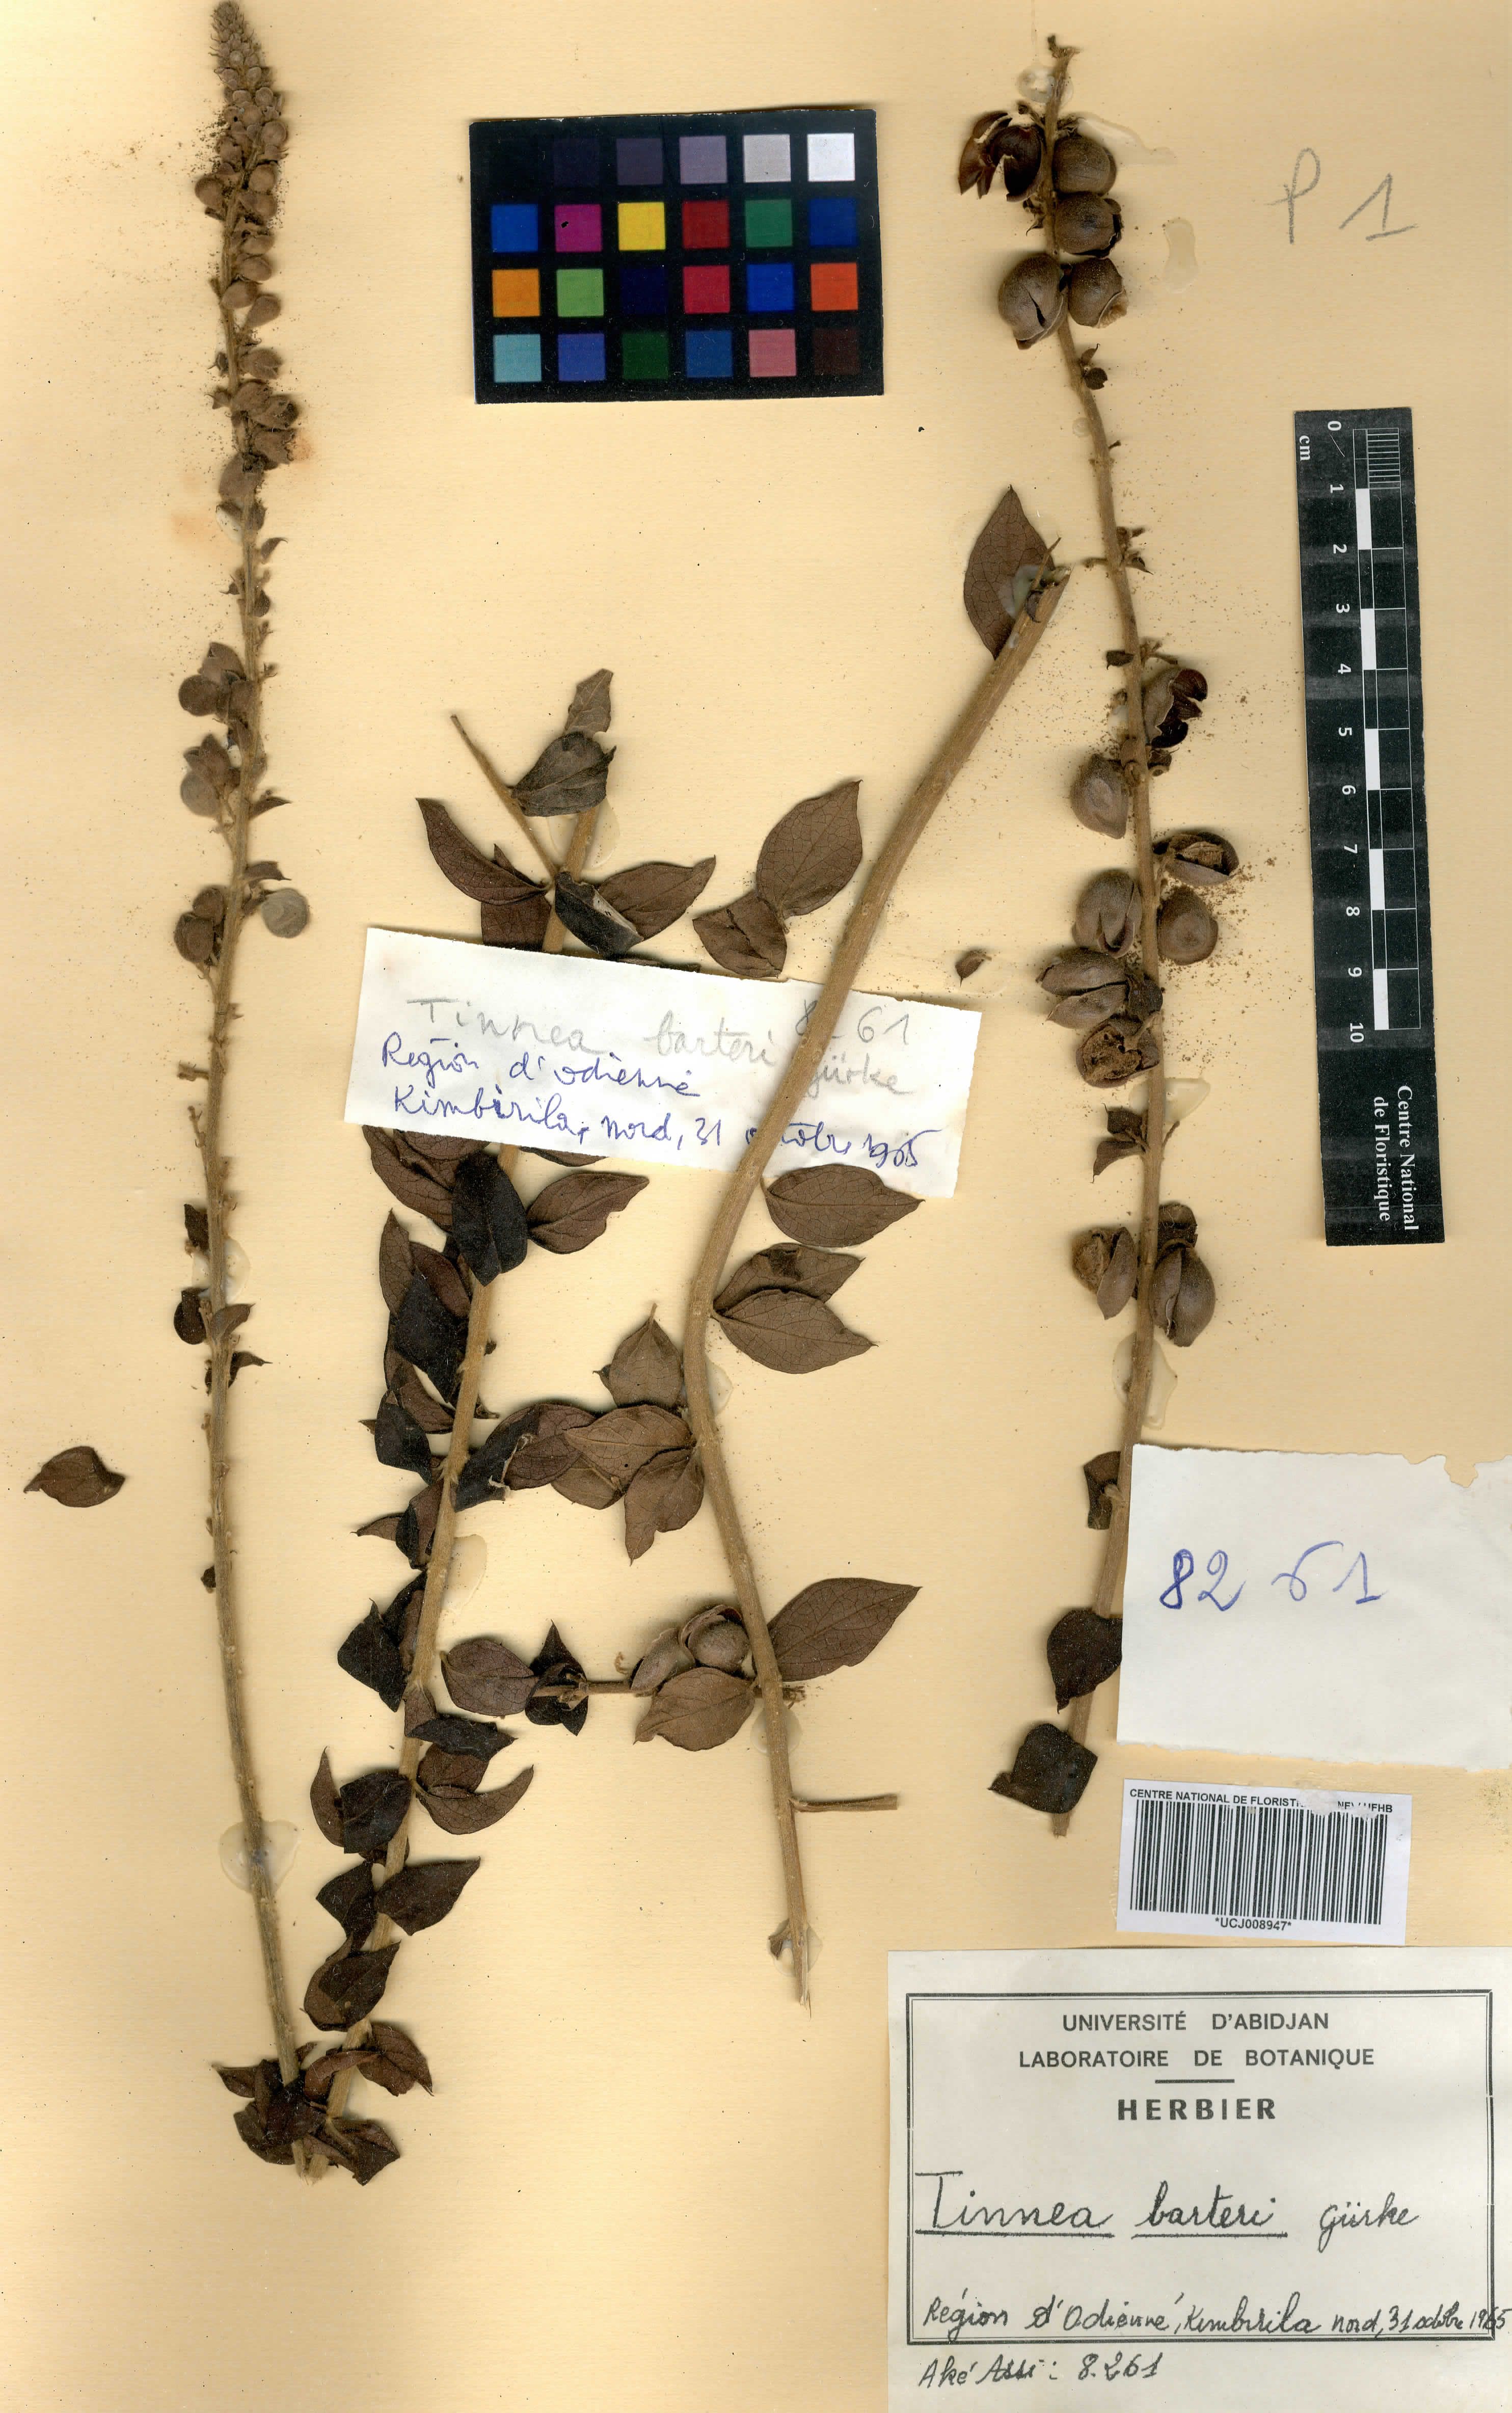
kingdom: Plantae
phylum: Tracheophyta
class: Magnoliopsida
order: Lamiales
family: Lamiaceae
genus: Tinnea
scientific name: Tinnea barteri
